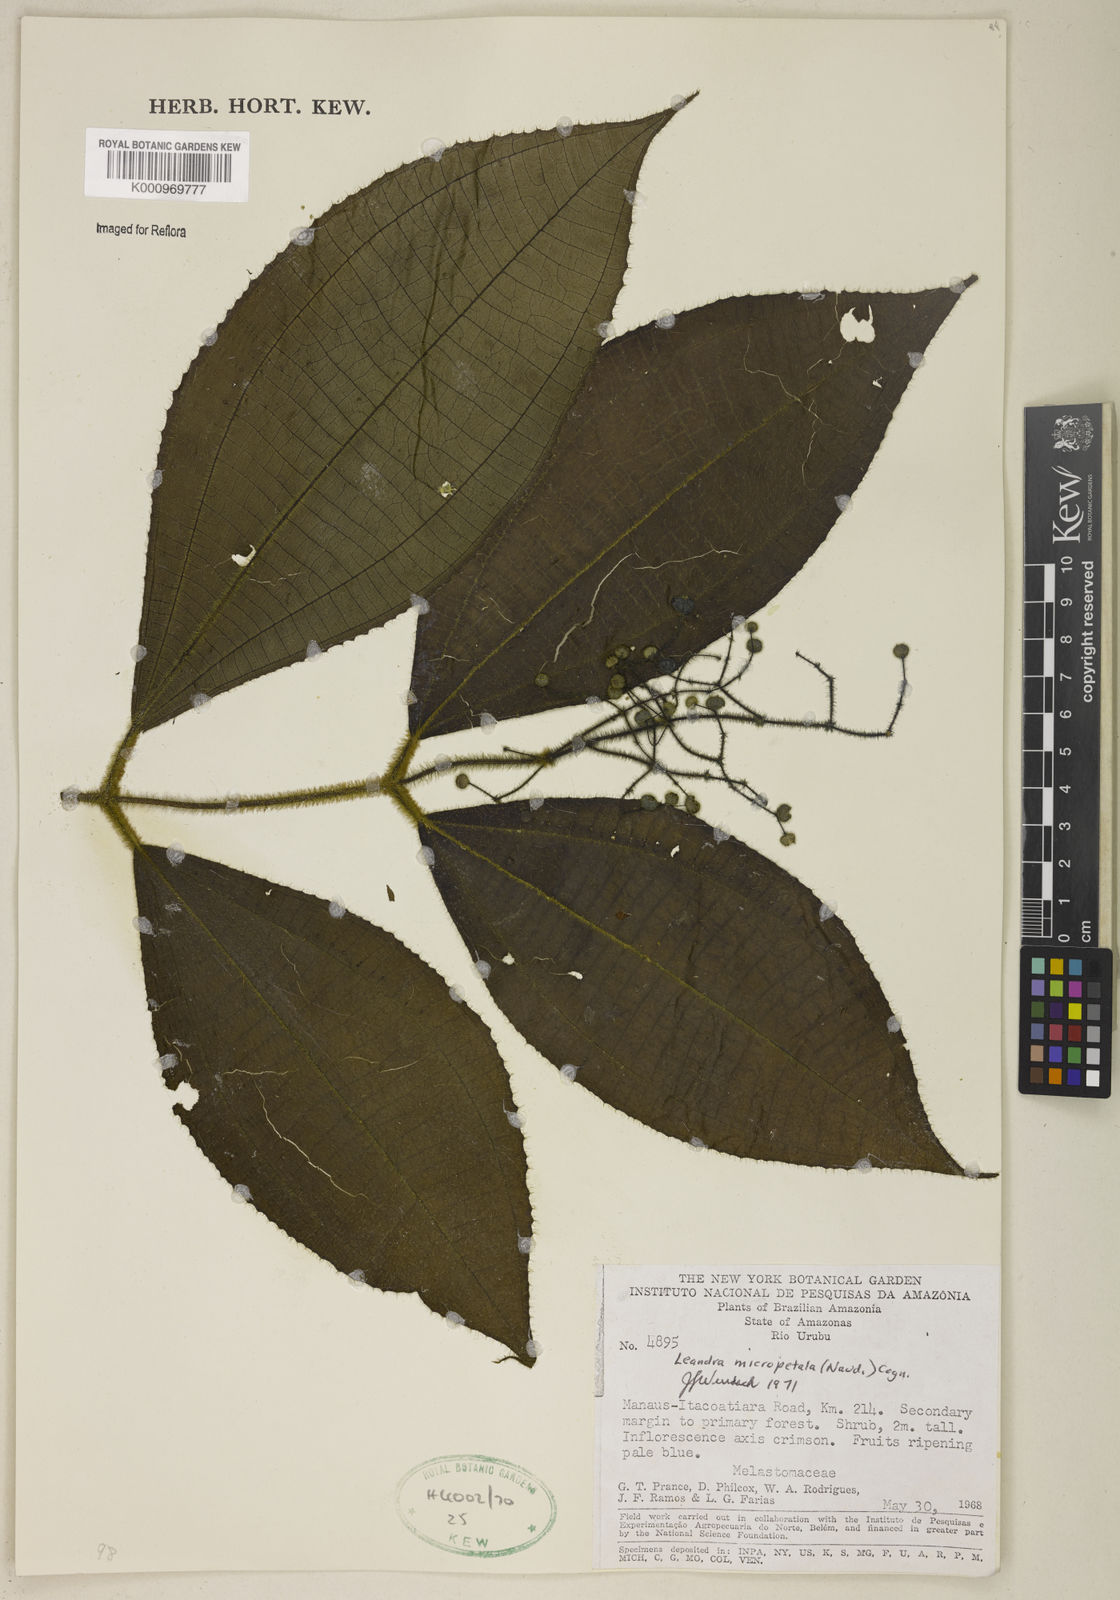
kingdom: Plantae
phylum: Tracheophyta
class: Magnoliopsida
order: Myrtales
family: Melastomataceae
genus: Miconia
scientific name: Miconia nanopetala
